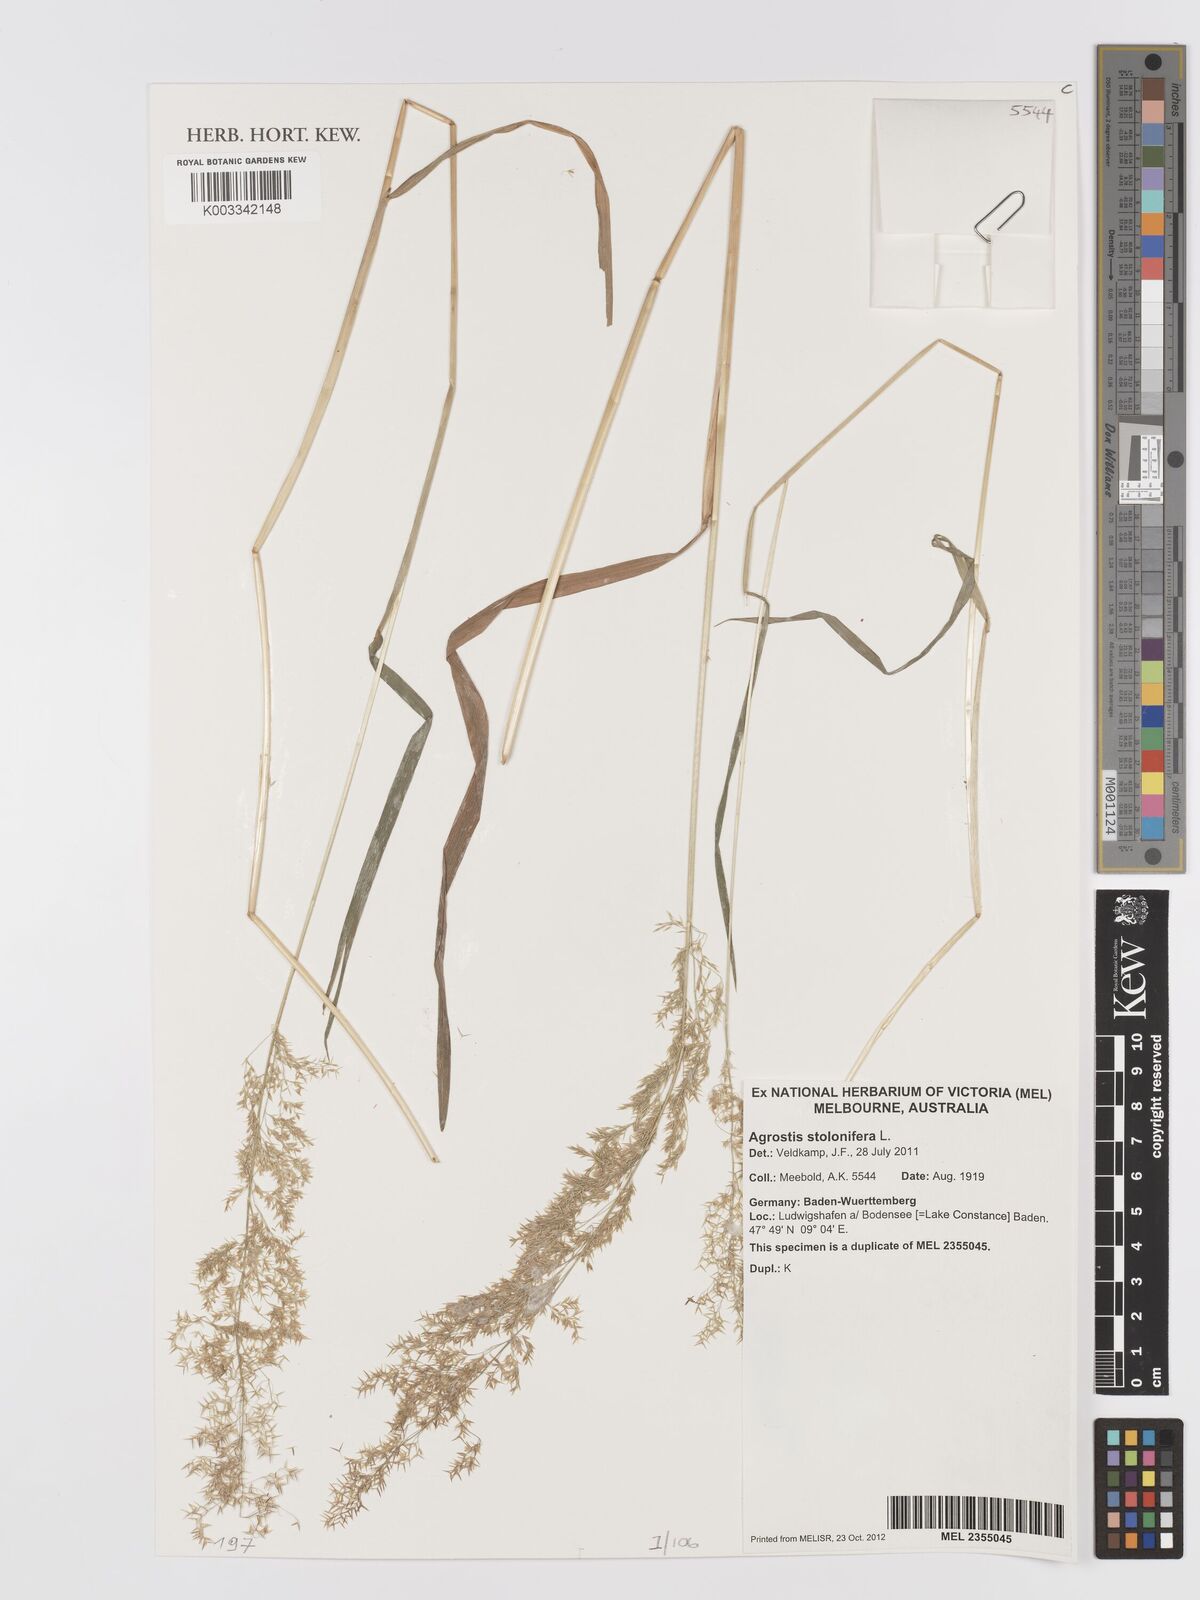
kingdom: Plantae
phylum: Tracheophyta
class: Liliopsida
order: Poales
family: Poaceae
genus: Agrostis
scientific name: Agrostis stolonifera
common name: Creeping bentgrass
